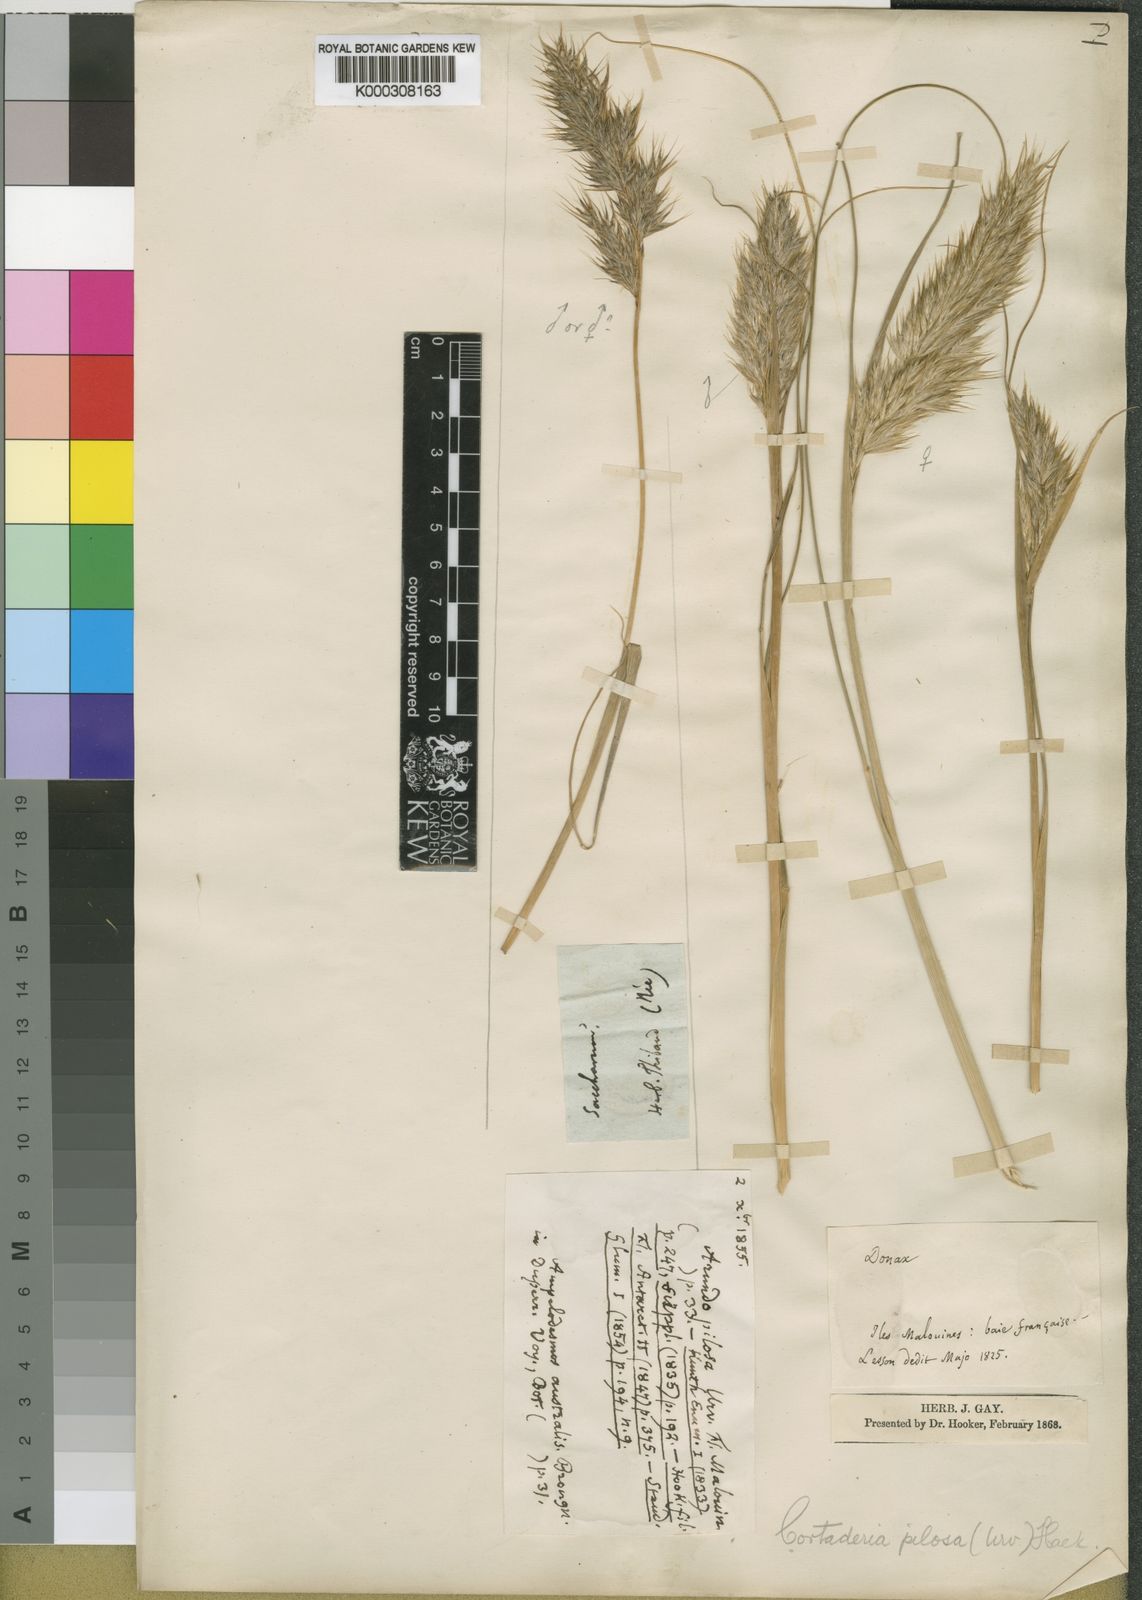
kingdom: Plantae
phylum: Tracheophyta
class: Liliopsida
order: Poales
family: Poaceae
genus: Cortaderia
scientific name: Cortaderia
